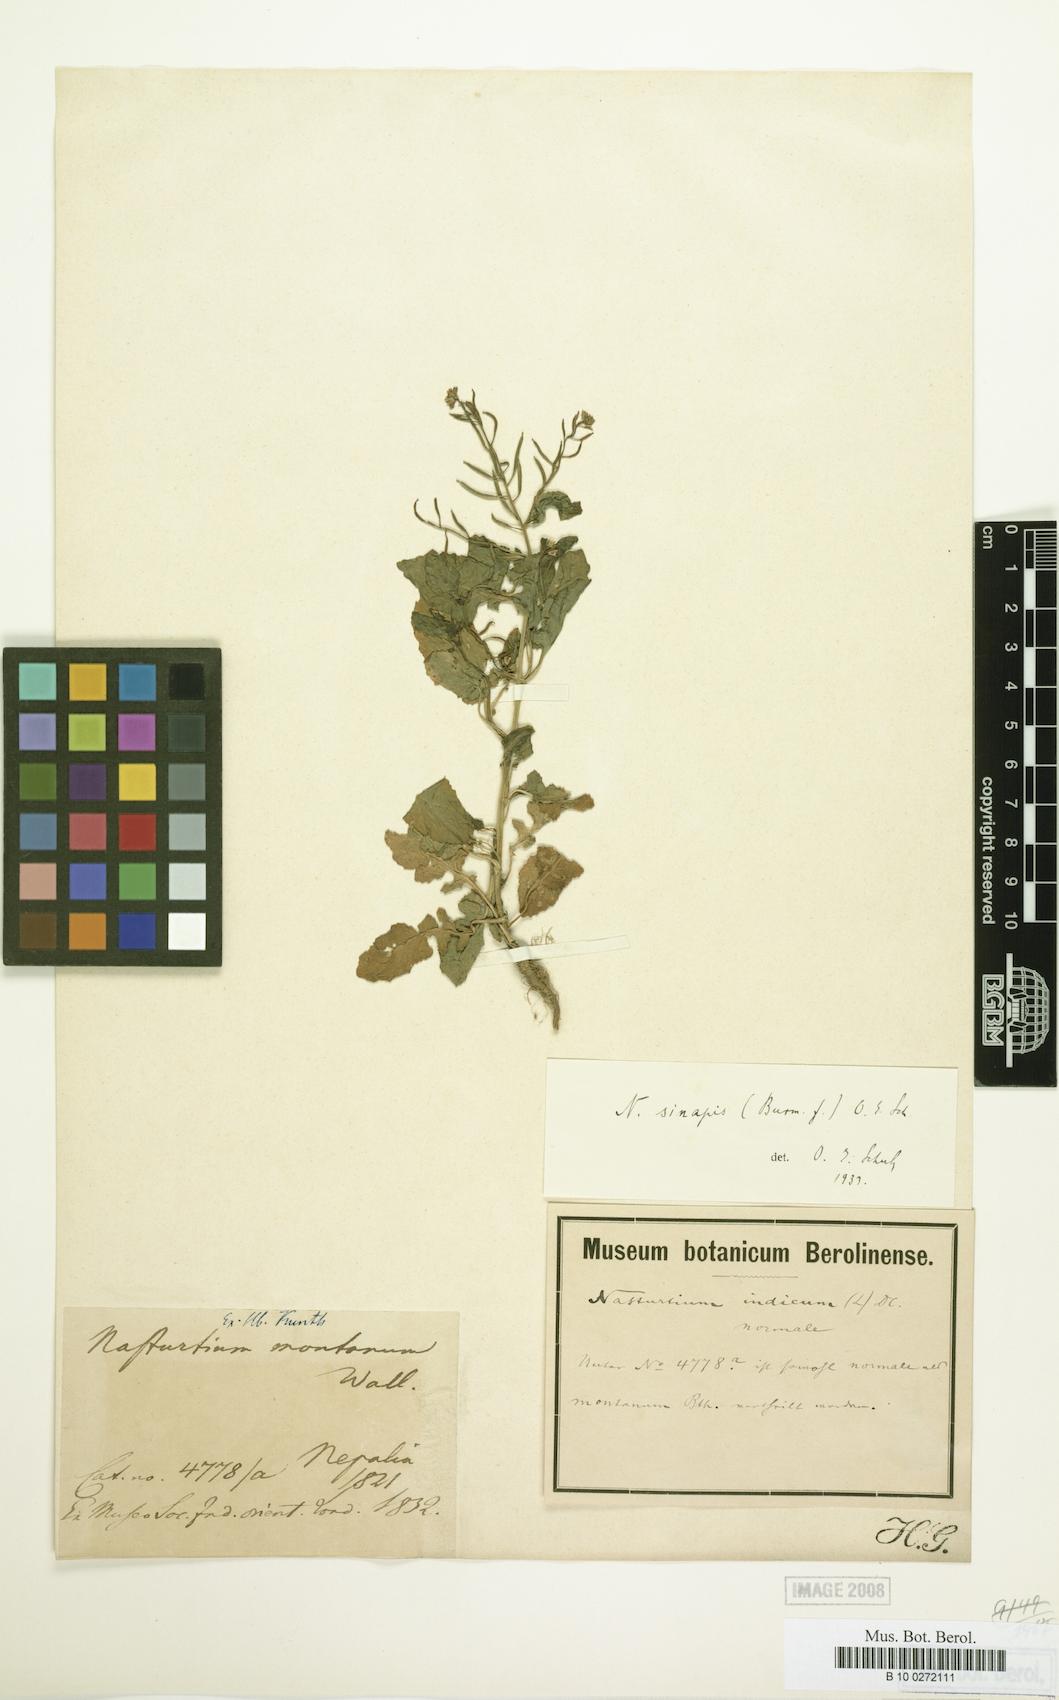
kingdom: Plantae
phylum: Tracheophyta
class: Magnoliopsida
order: Brassicales
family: Brassicaceae
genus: Rorippa
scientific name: Rorippa indica
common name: Variableleaf yellowcress
